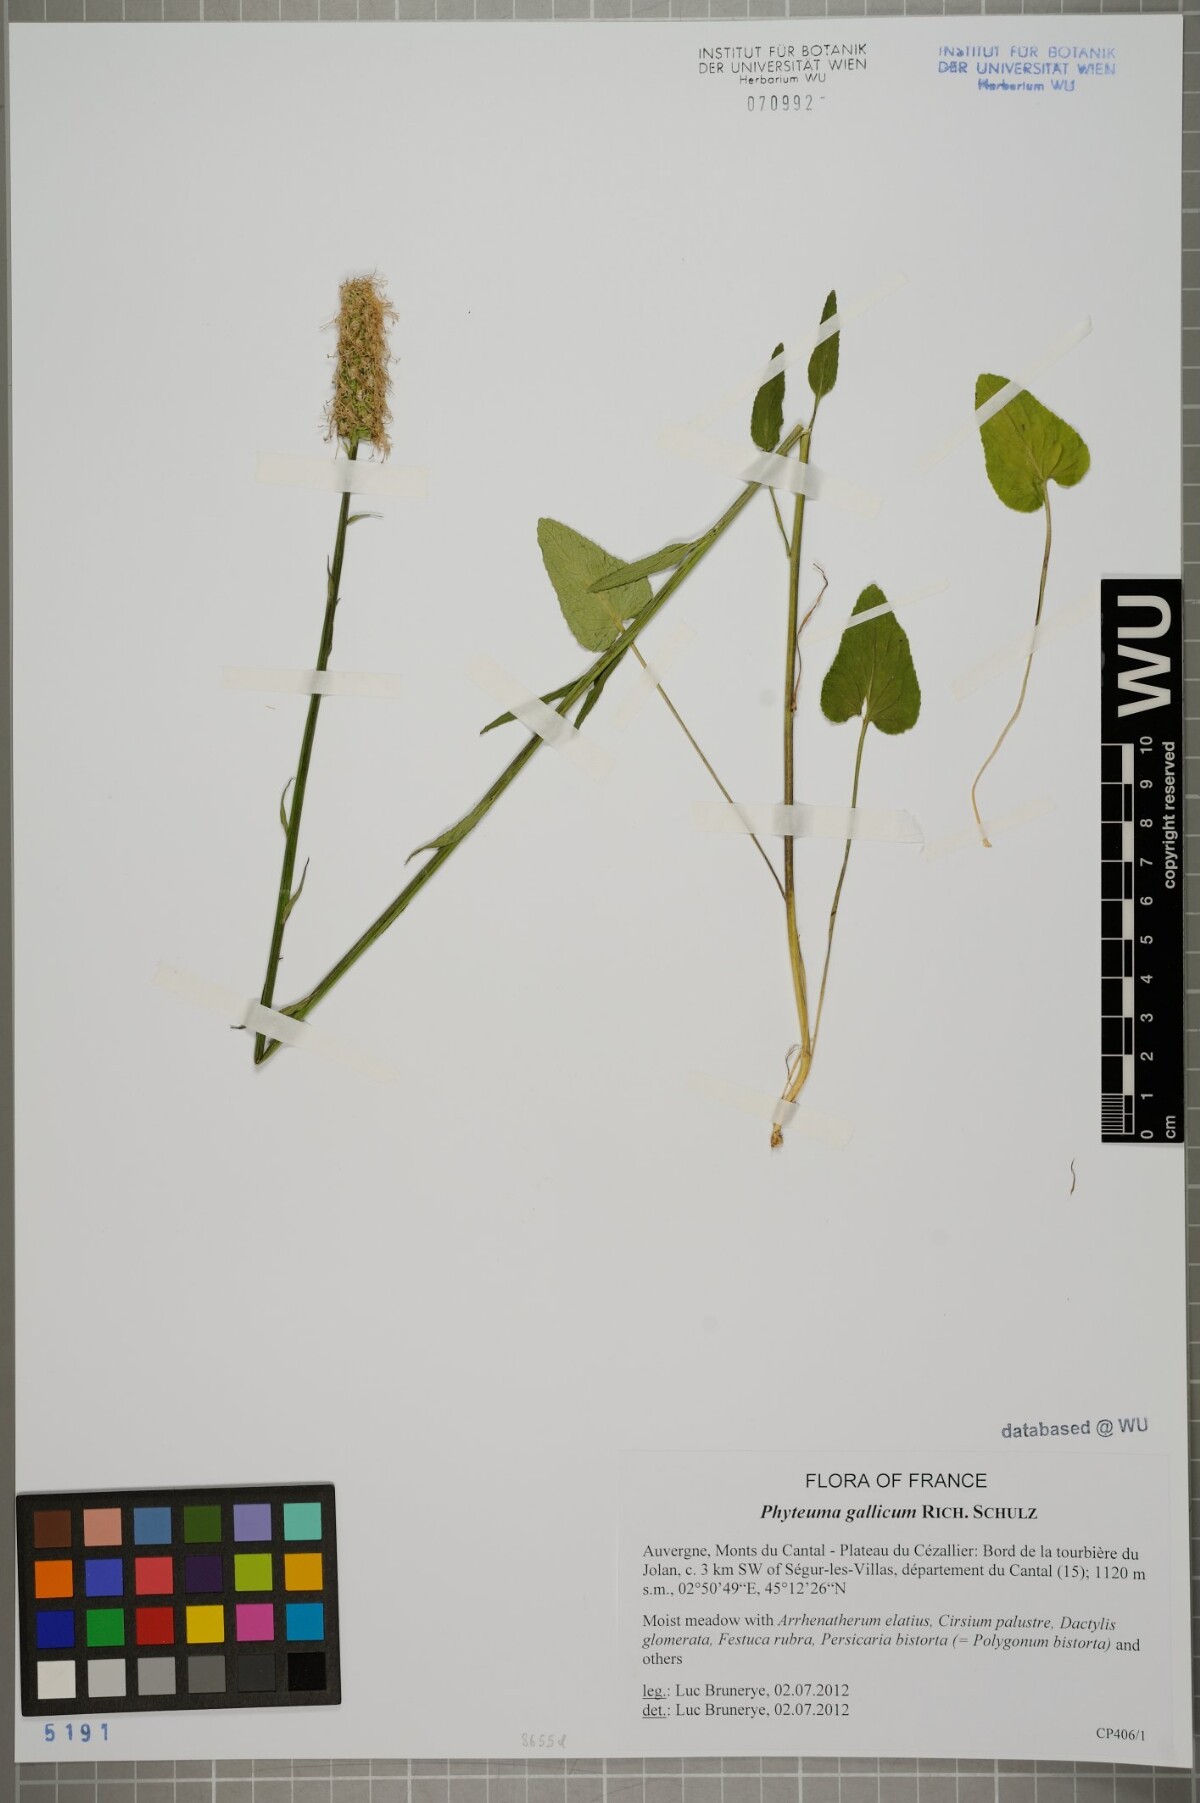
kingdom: Plantae
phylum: Tracheophyta
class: Magnoliopsida
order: Asterales
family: Campanulaceae
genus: Phyteuma
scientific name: Phyteuma gallicum
